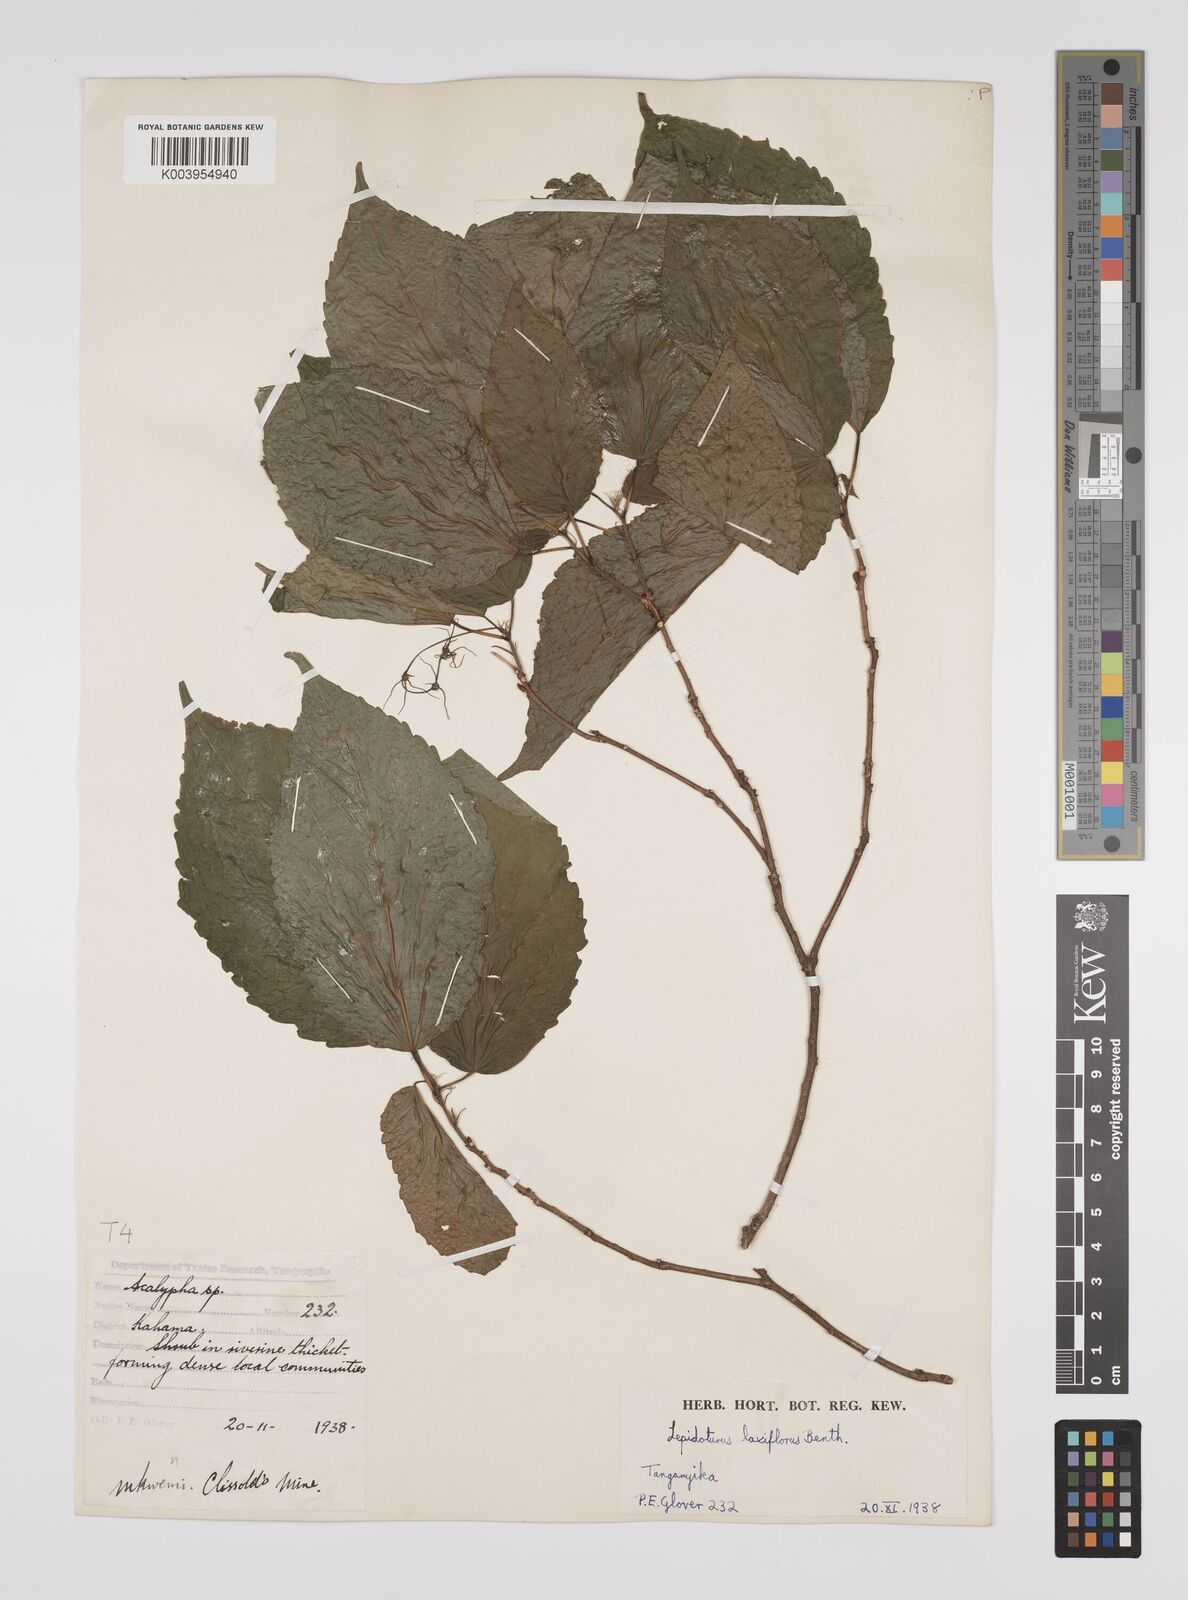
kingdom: Plantae
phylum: Tracheophyta
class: Magnoliopsida
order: Malpighiales
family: Euphorbiaceae
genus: Alchornea
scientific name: Alchornea laxiflora
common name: Lowveld bead-string
